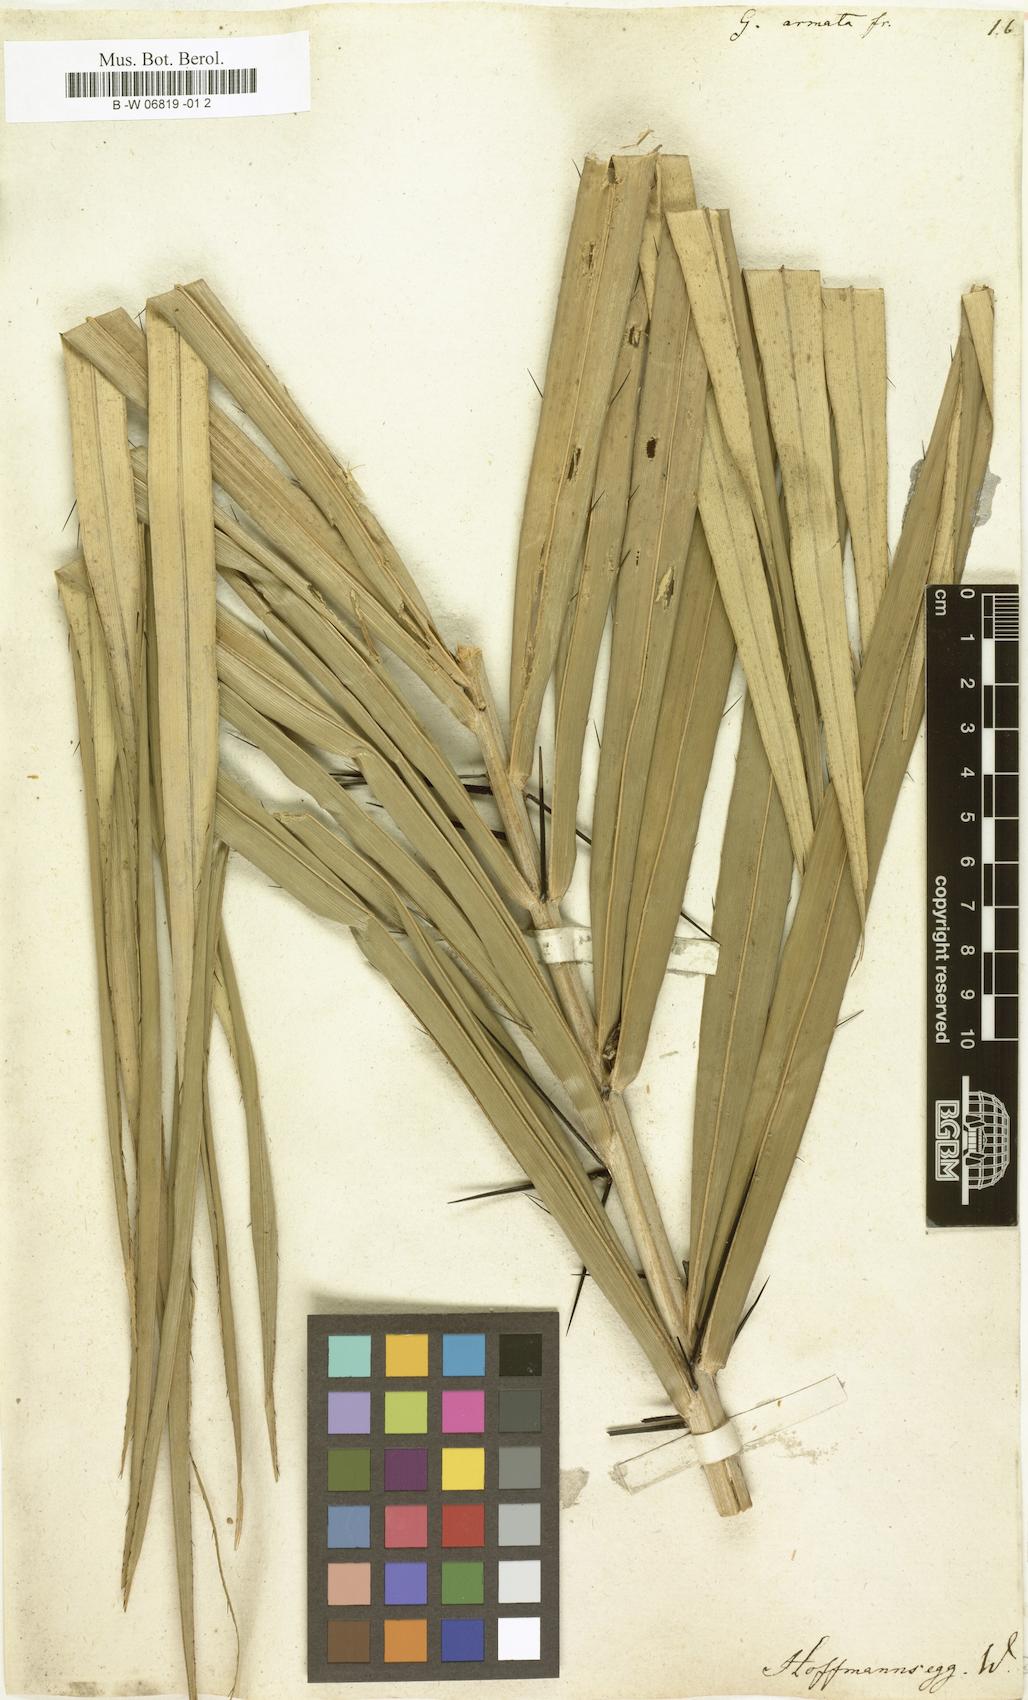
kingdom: Plantae
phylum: Tracheophyta
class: Magnoliopsida
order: Rosales
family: Urticaceae
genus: Girardinia
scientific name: Girardinia diversifolia
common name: Himalayan-nettle
